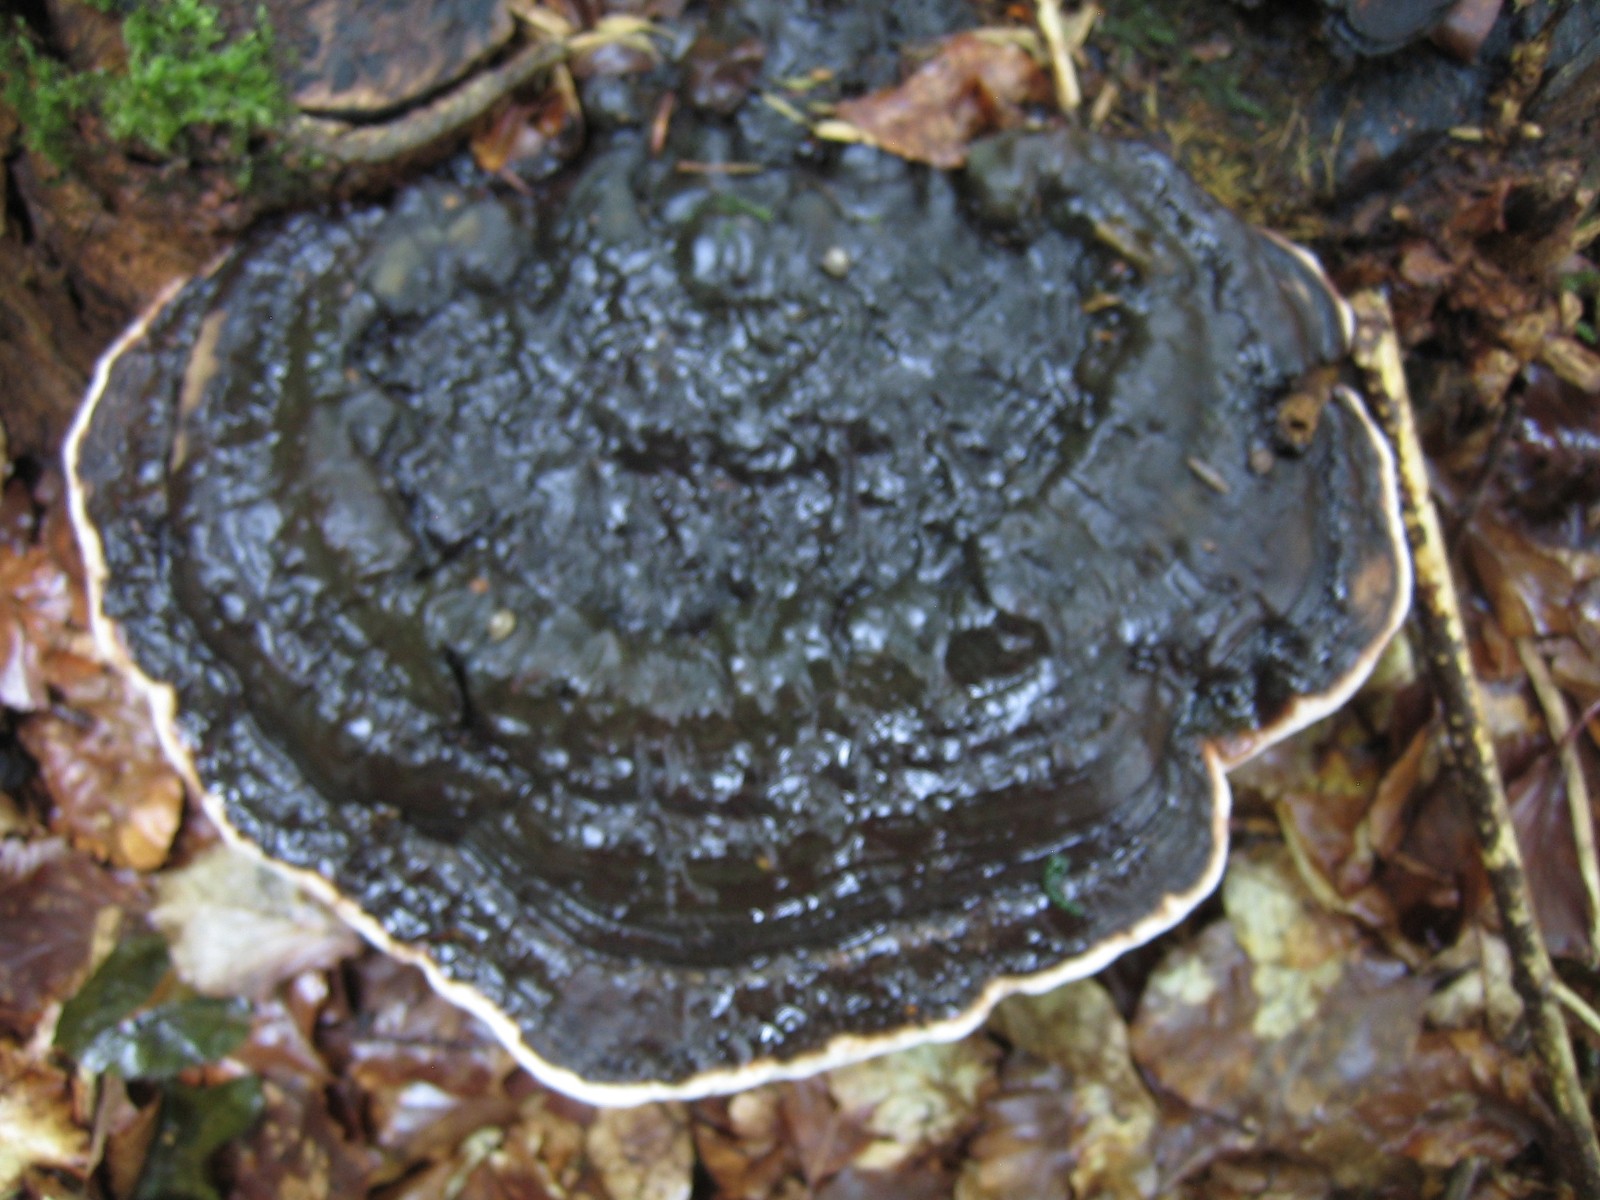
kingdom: Fungi
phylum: Basidiomycota
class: Agaricomycetes
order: Polyporales
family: Polyporaceae
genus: Ganoderma
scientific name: Ganoderma applanatum
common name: flad lakporesvamp
